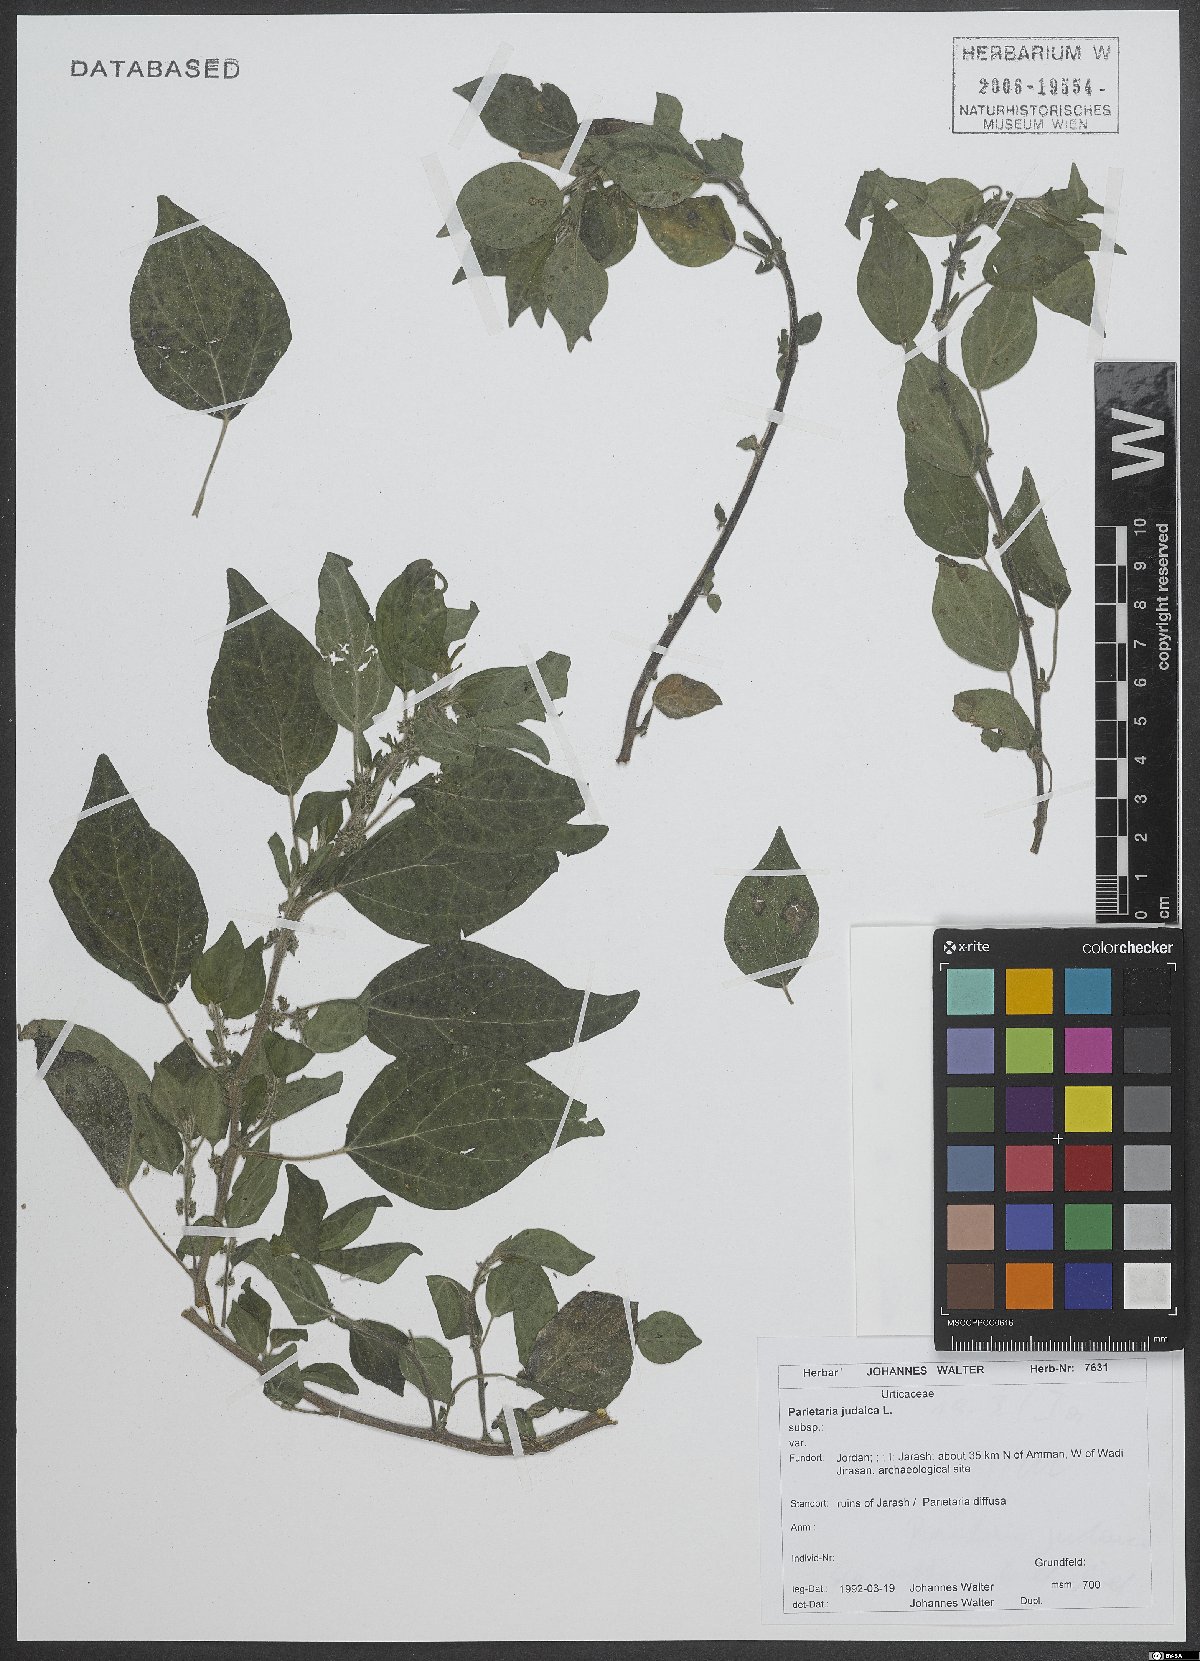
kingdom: Plantae
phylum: Tracheophyta
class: Magnoliopsida
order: Rosales
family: Urticaceae
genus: Parietaria
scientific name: Parietaria judaica
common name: Pellitory-of-the-wall
